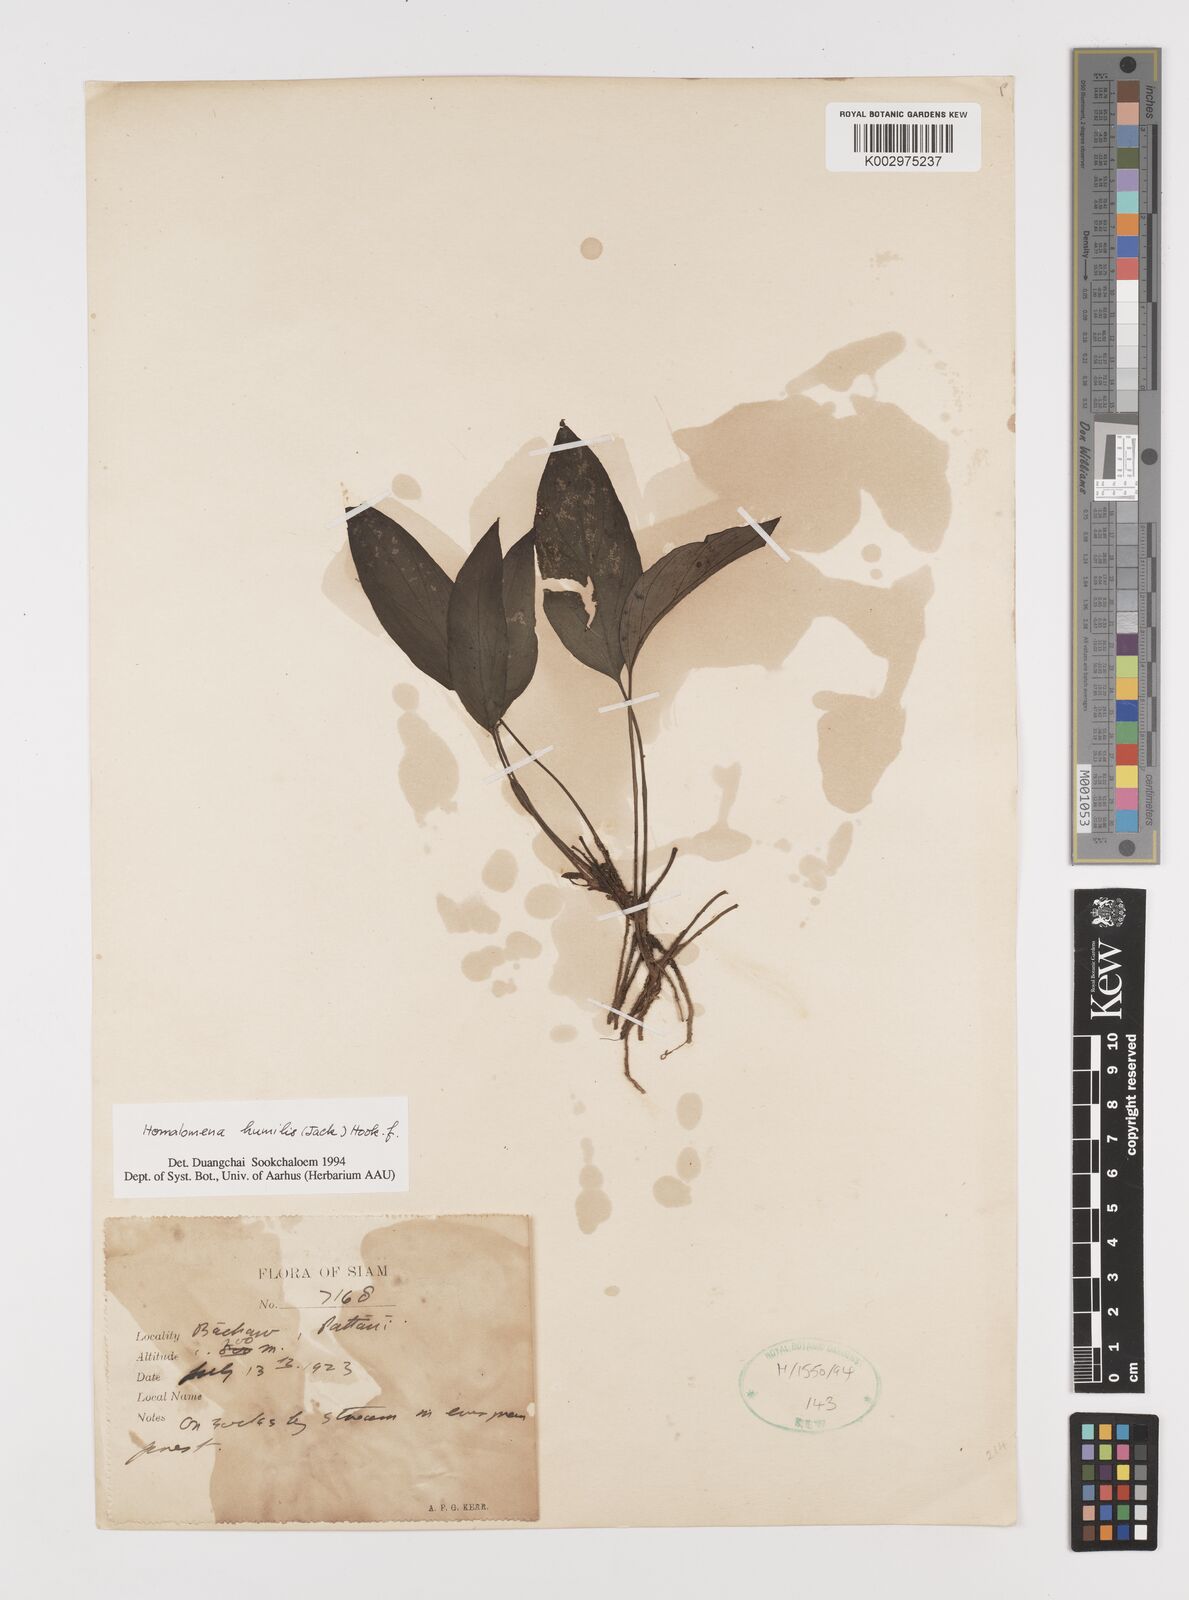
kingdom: Plantae
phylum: Tracheophyta
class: Liliopsida
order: Alismatales
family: Araceae
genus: Homalomena
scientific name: Homalomena humilis
